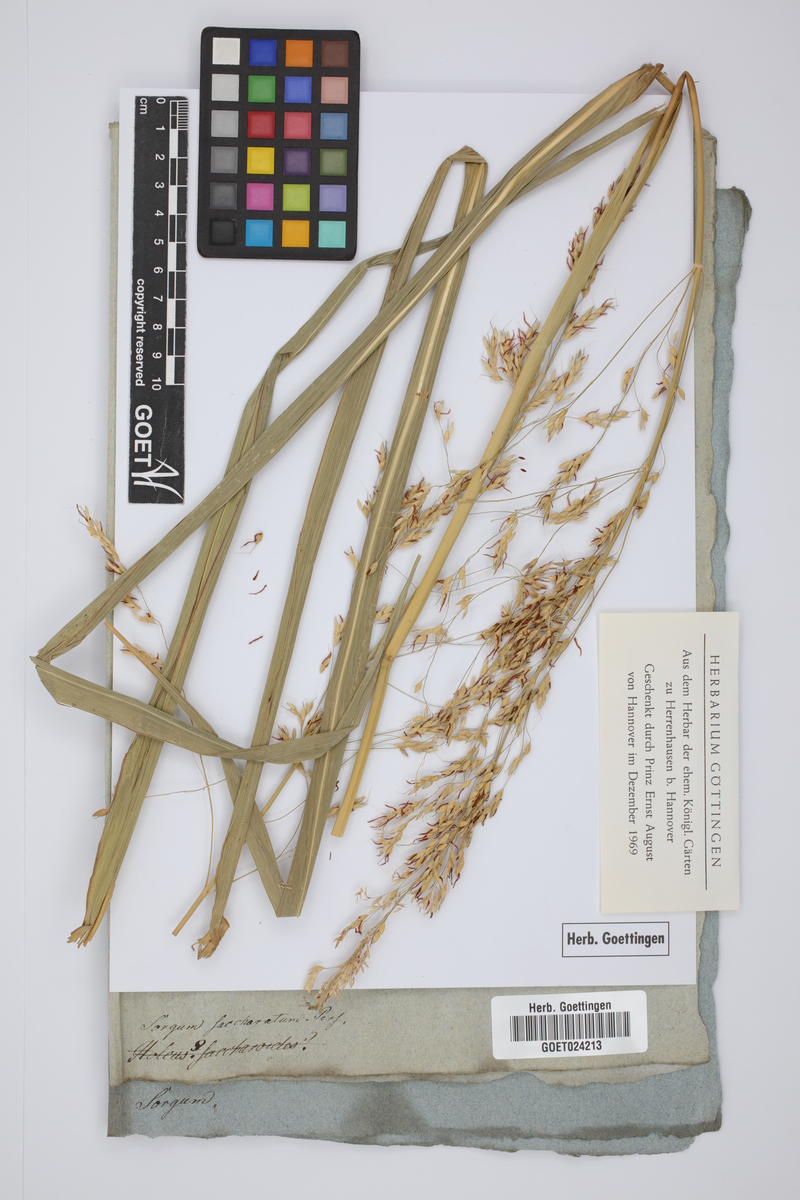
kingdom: Plantae
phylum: Tracheophyta
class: Liliopsida
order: Poales
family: Poaceae
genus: Sorghum
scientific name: Sorghum bicolor
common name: Sorghum
